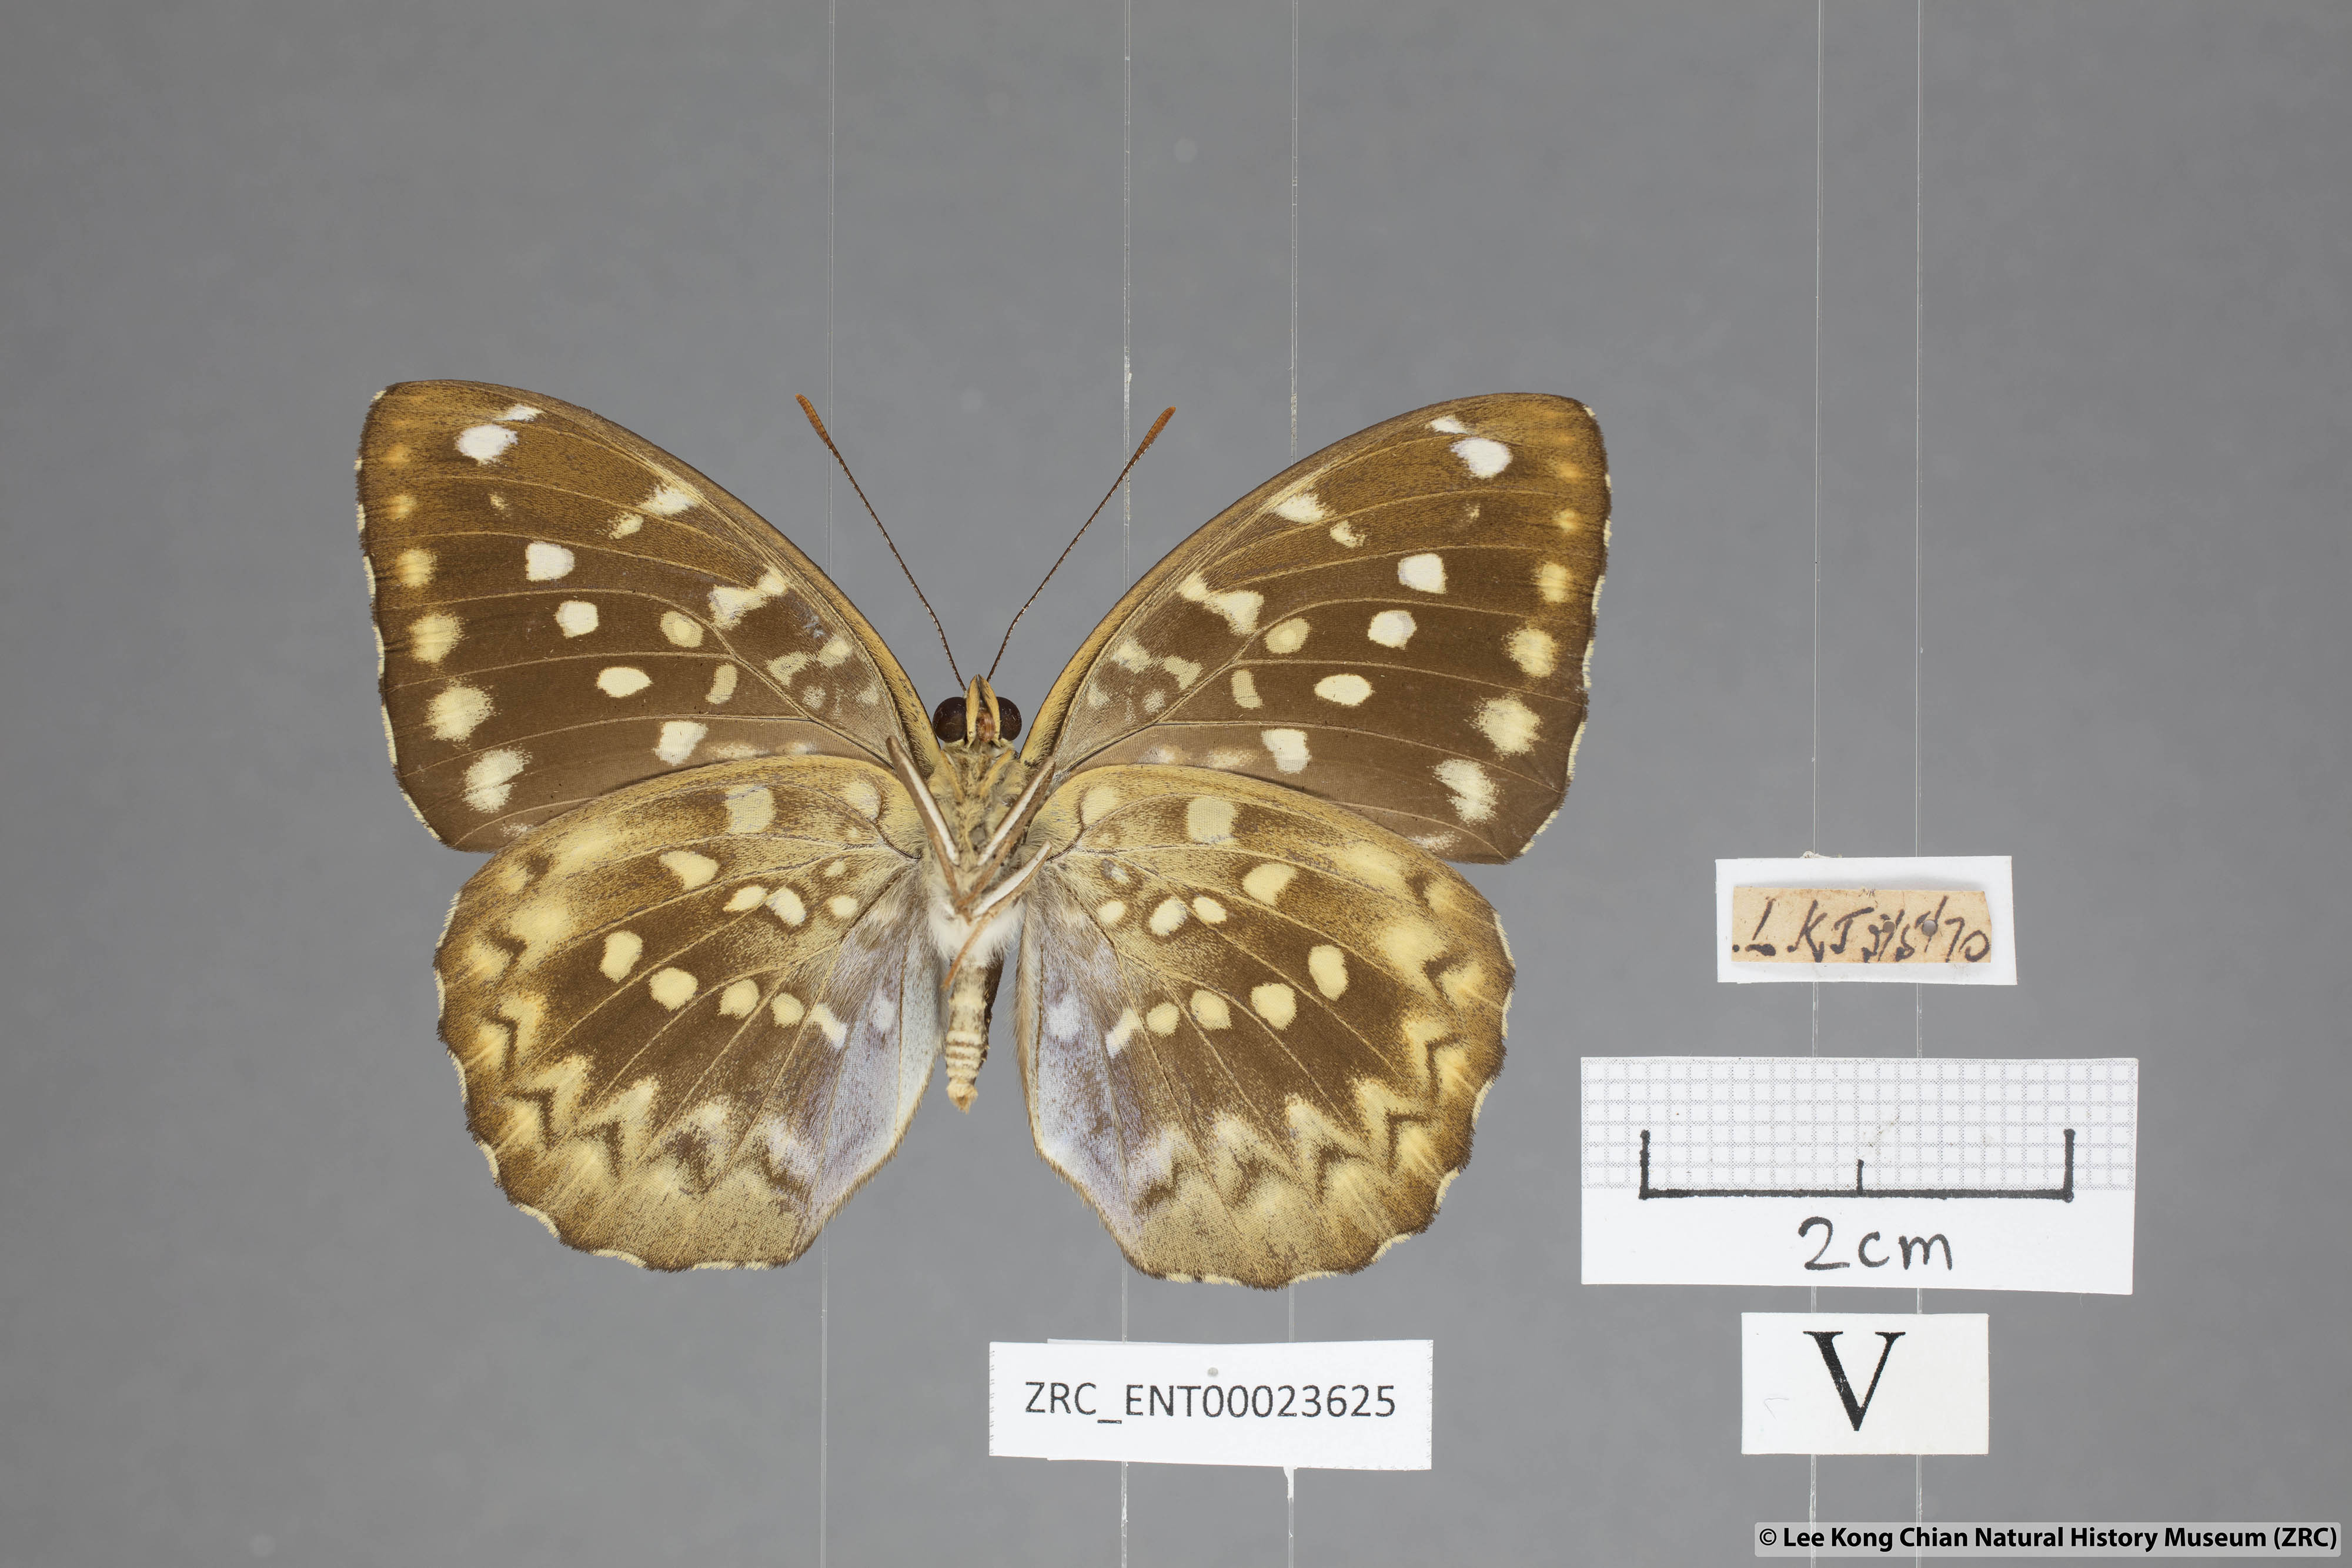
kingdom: Animalia
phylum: Arthropoda
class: Insecta
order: Lepidoptera
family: Nymphalidae
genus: Lexias
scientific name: Lexias canescens
